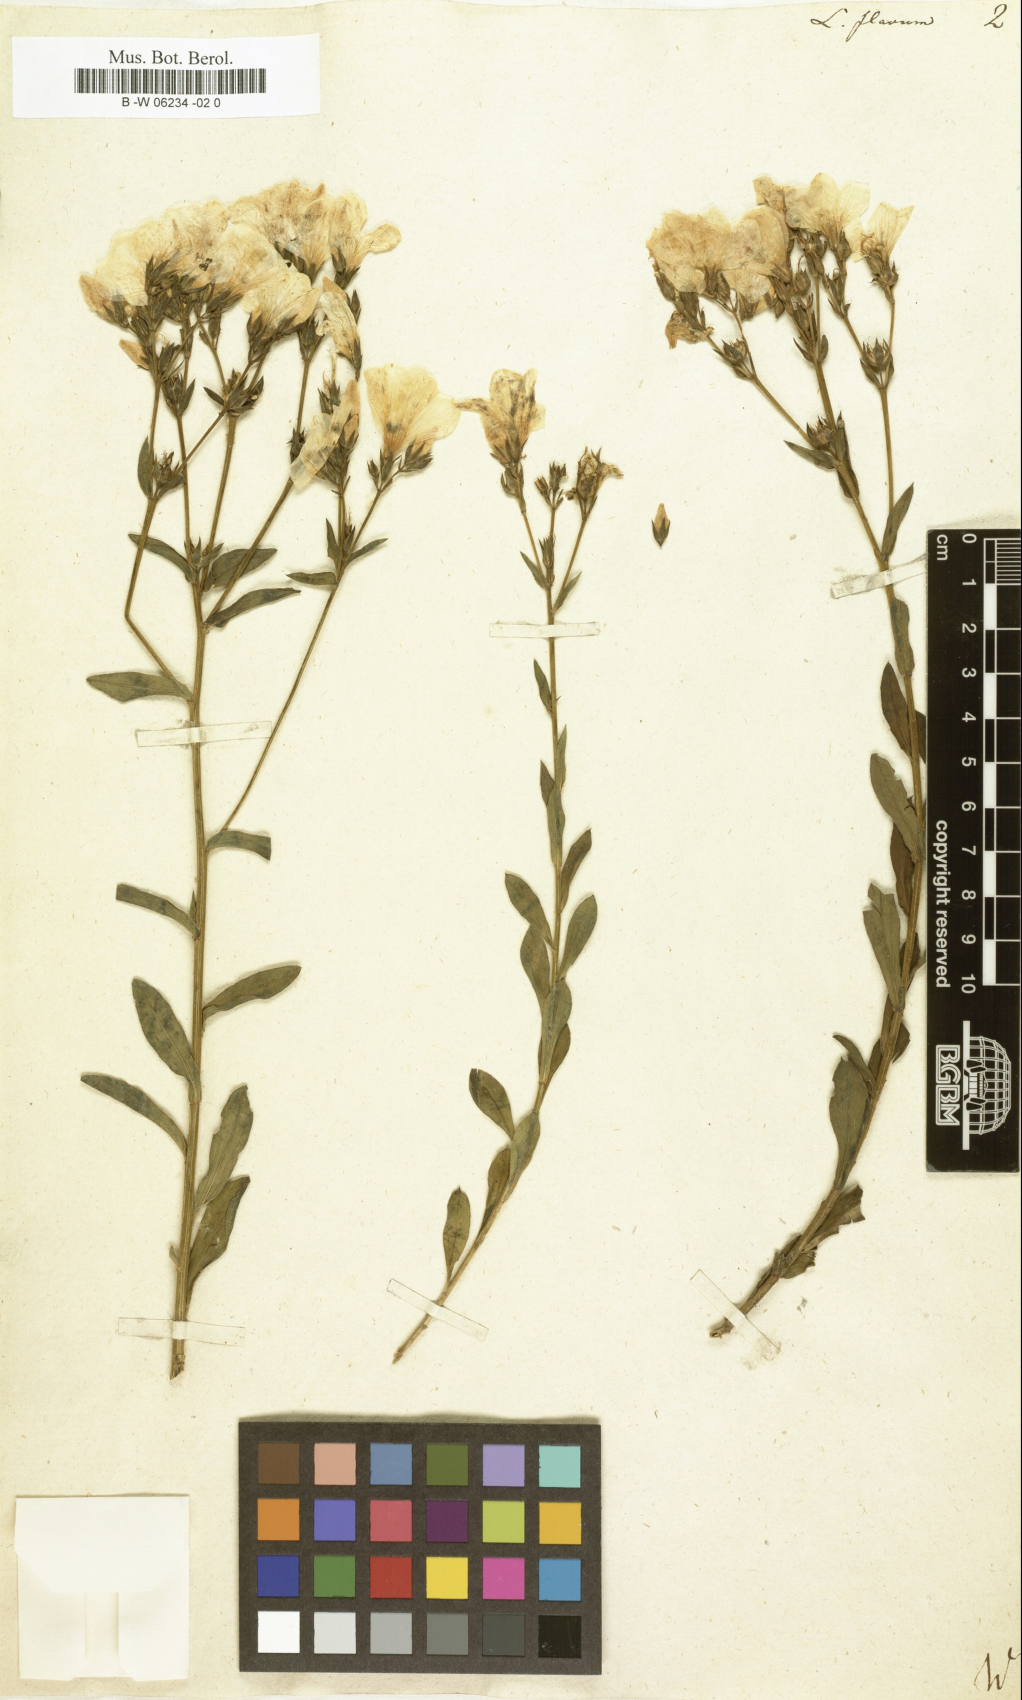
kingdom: Plantae
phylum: Tracheophyta
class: Magnoliopsida
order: Malpighiales
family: Linaceae
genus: Linum
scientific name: Linum flavum
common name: Yellow flax
